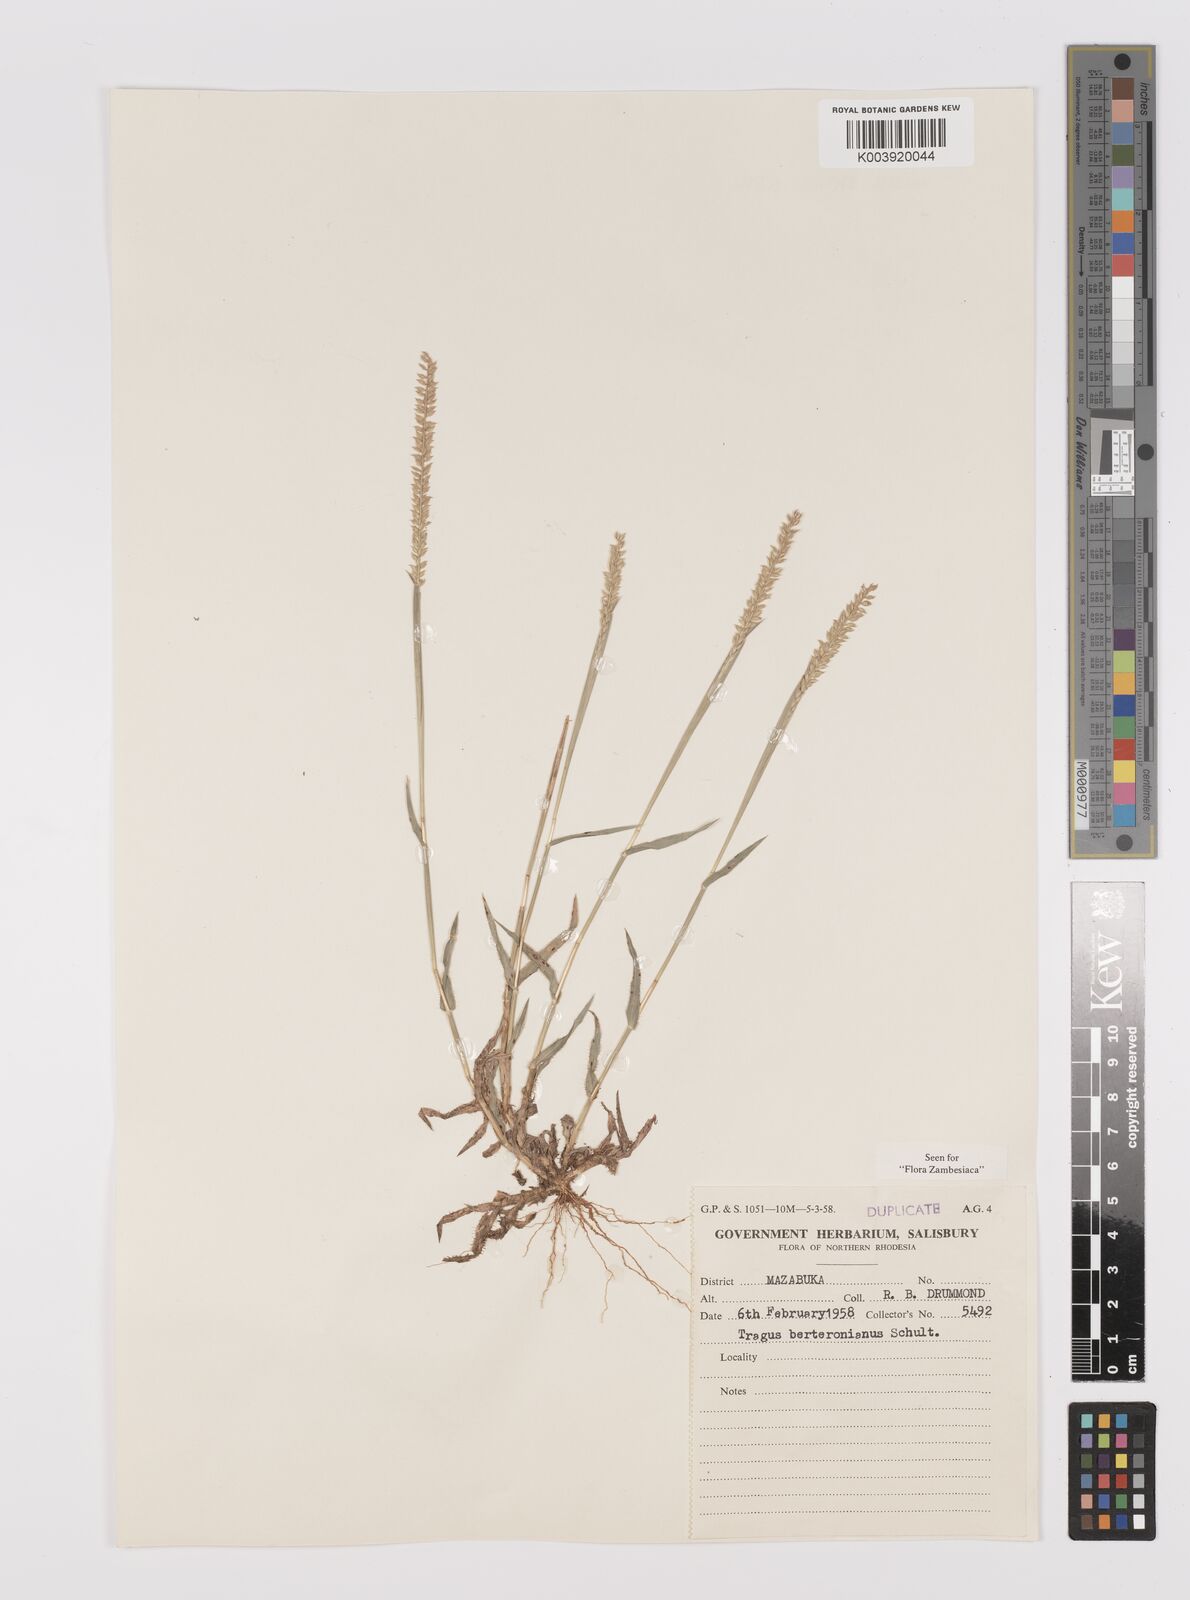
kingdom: Plantae
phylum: Tracheophyta
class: Liliopsida
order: Poales
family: Poaceae
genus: Tragus
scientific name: Tragus berteronianus
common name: African bur-grass
